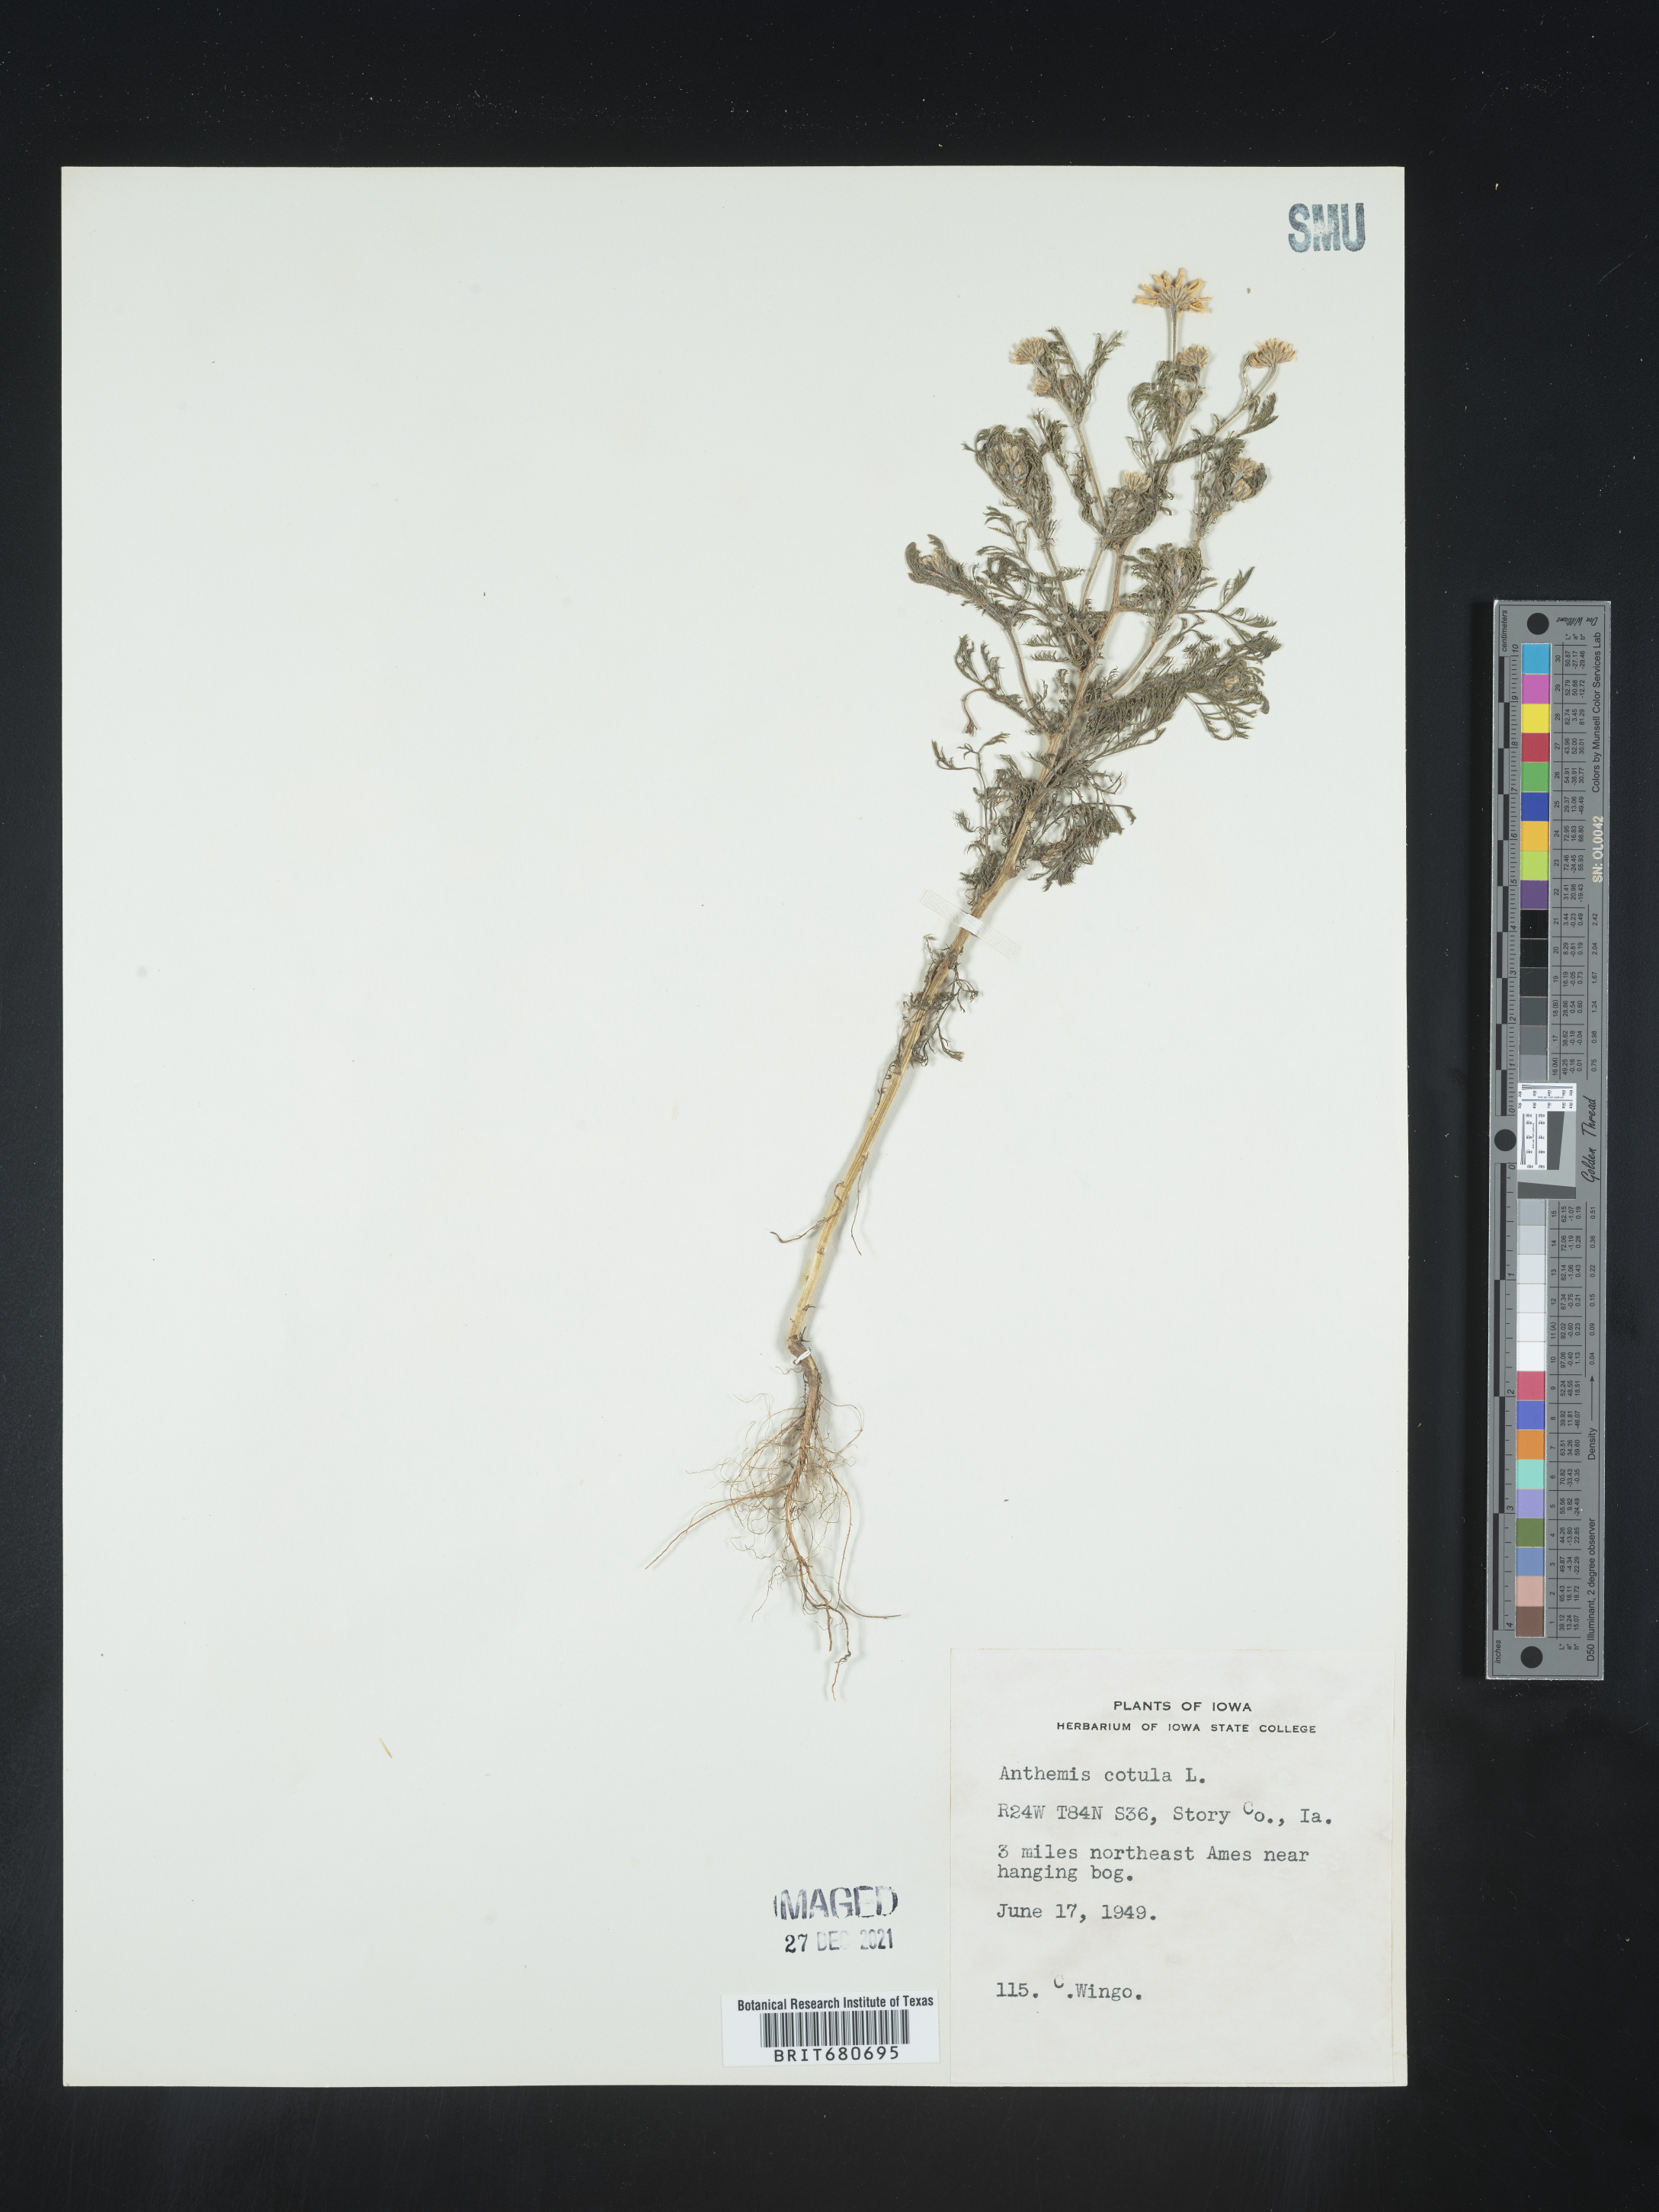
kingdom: Plantae
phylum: Tracheophyta
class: Magnoliopsida
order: Asterales
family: Asteraceae
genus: Anthemis
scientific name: Anthemis cotula
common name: Stinking chamomile
